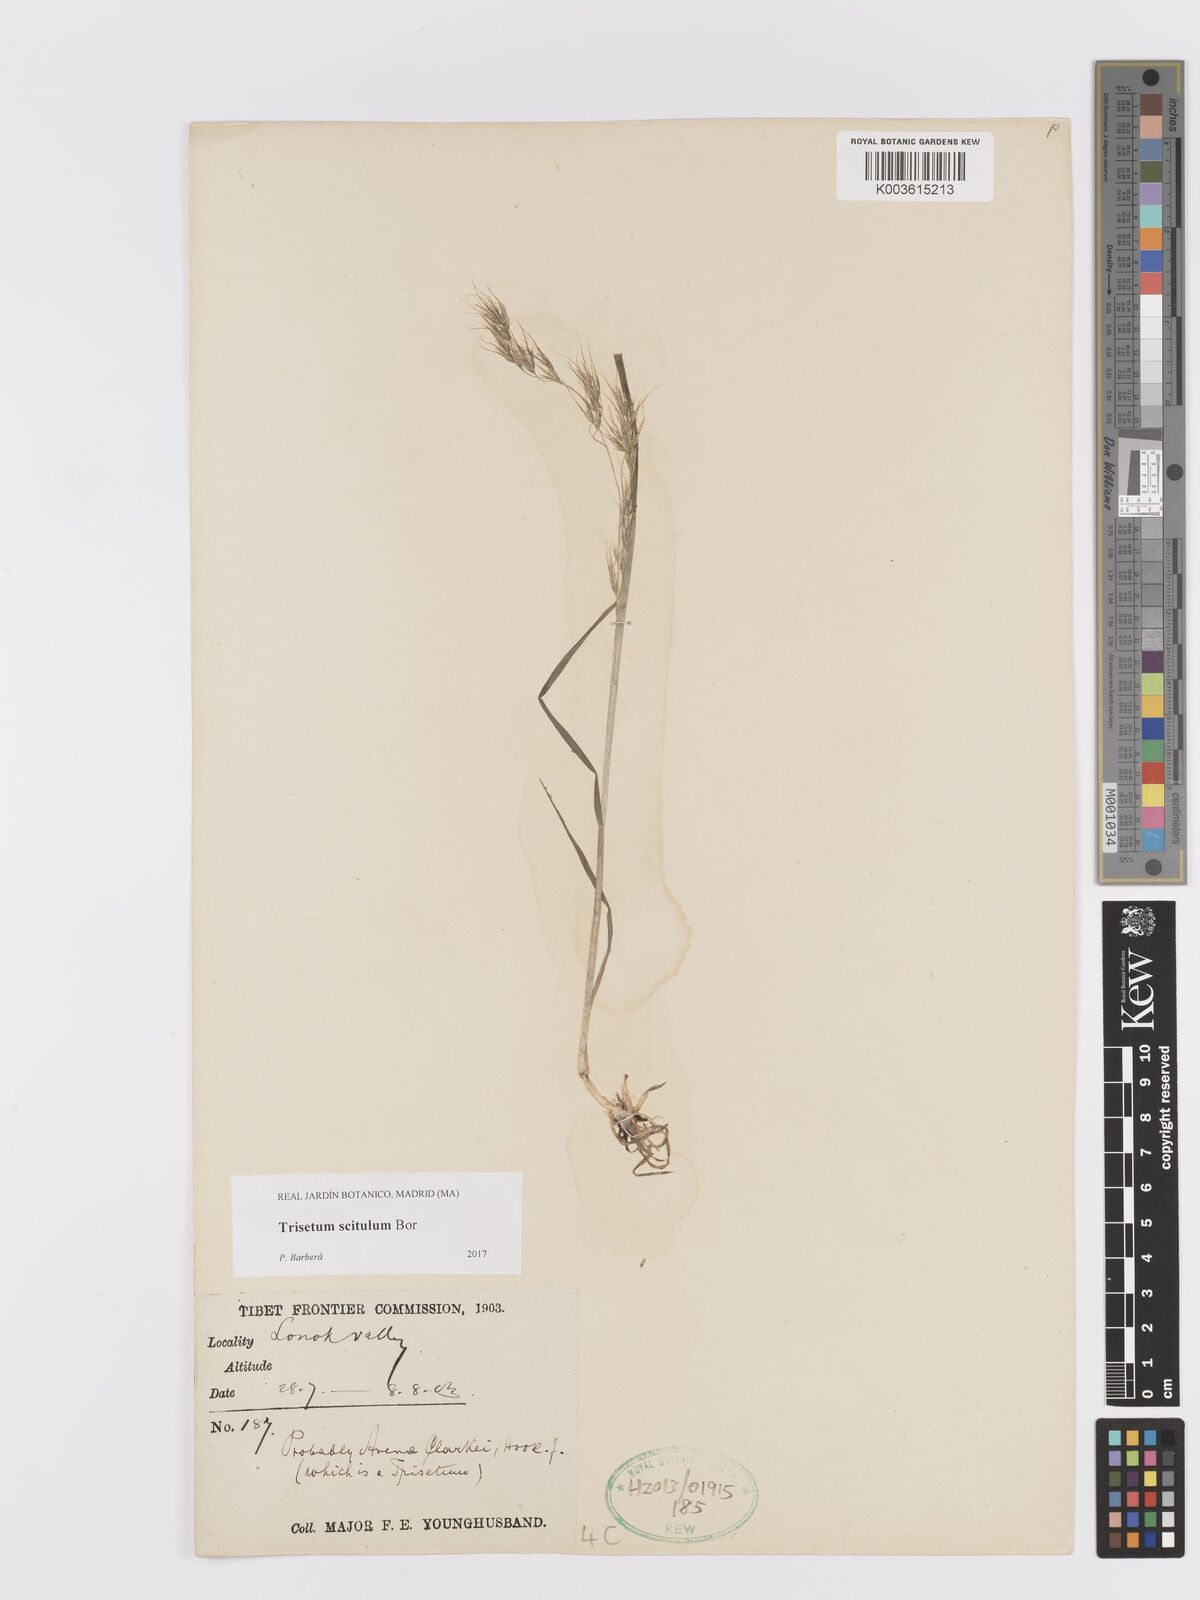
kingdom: Plantae
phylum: Tracheophyta
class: Liliopsida
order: Poales
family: Poaceae
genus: Sibirotrisetum
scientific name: Sibirotrisetum scitulum
